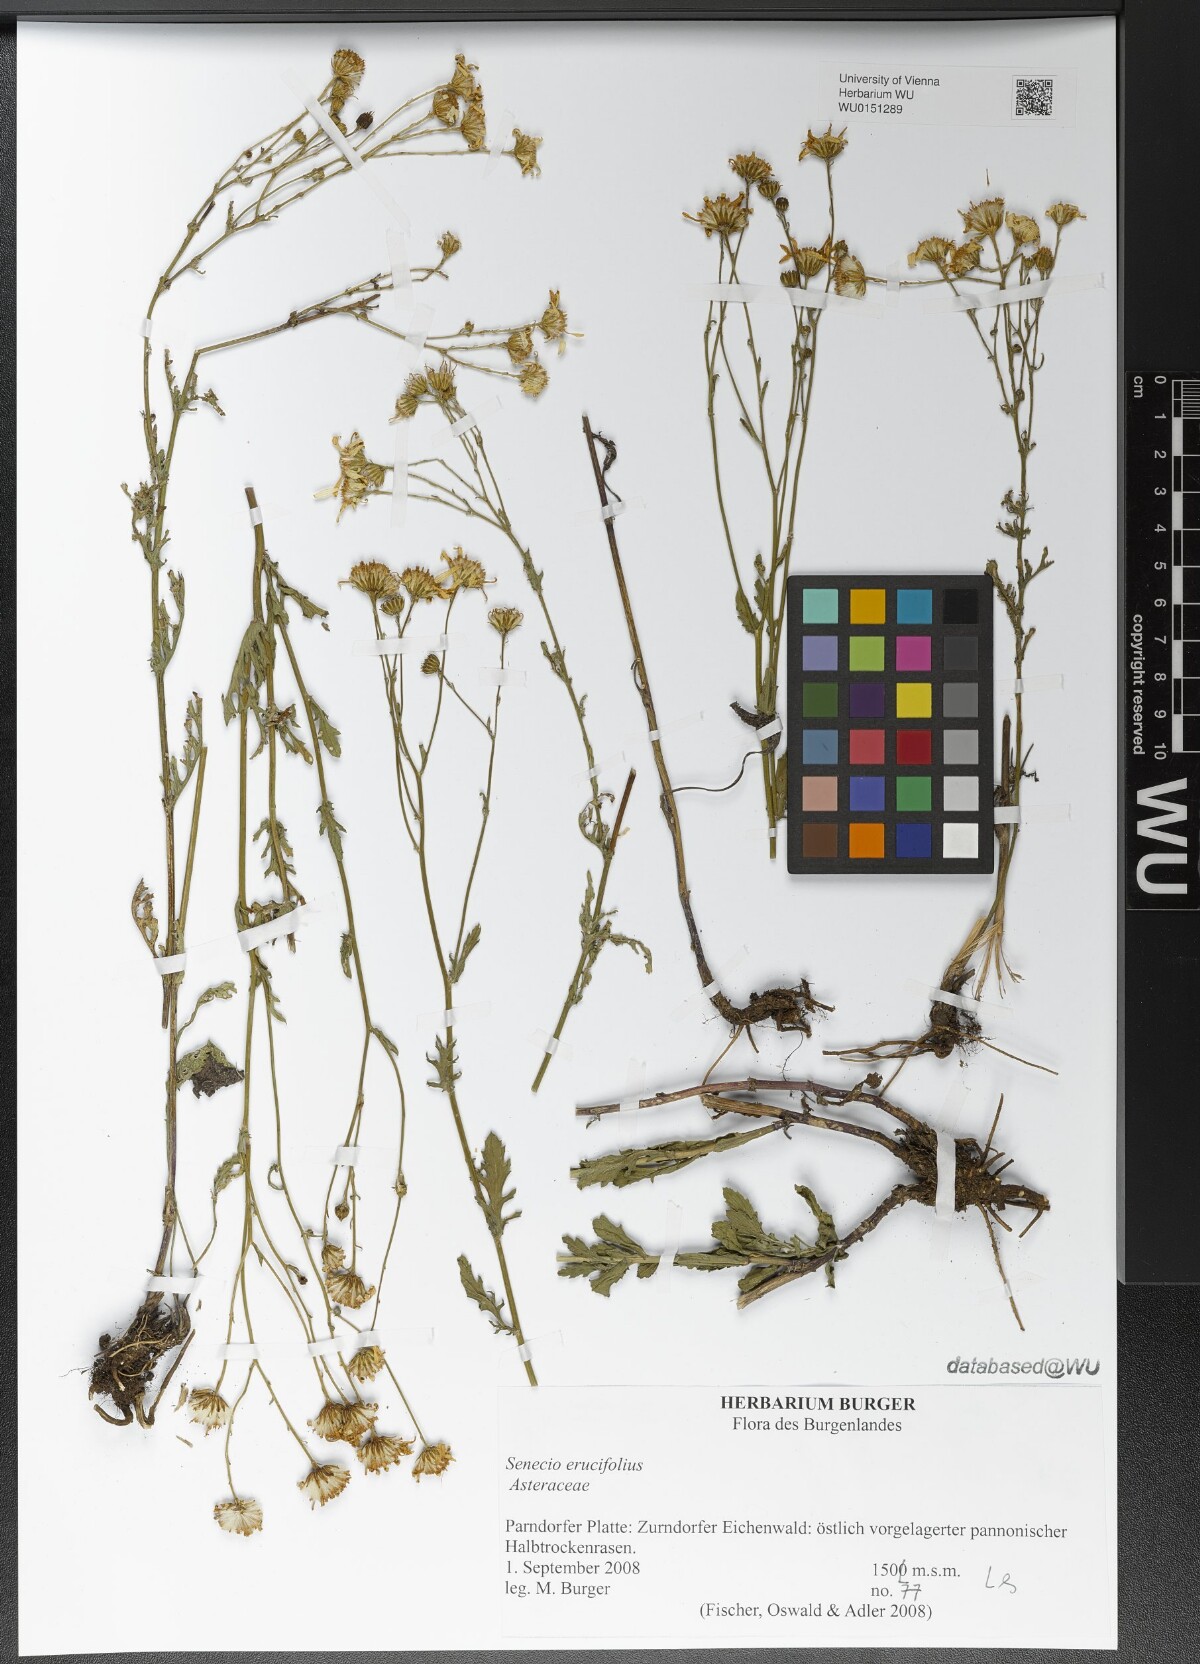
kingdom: Plantae
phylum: Tracheophyta
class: Magnoliopsida
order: Asterales
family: Asteraceae
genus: Jacobaea
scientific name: Jacobaea erucifolia
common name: Hoary ragwort
